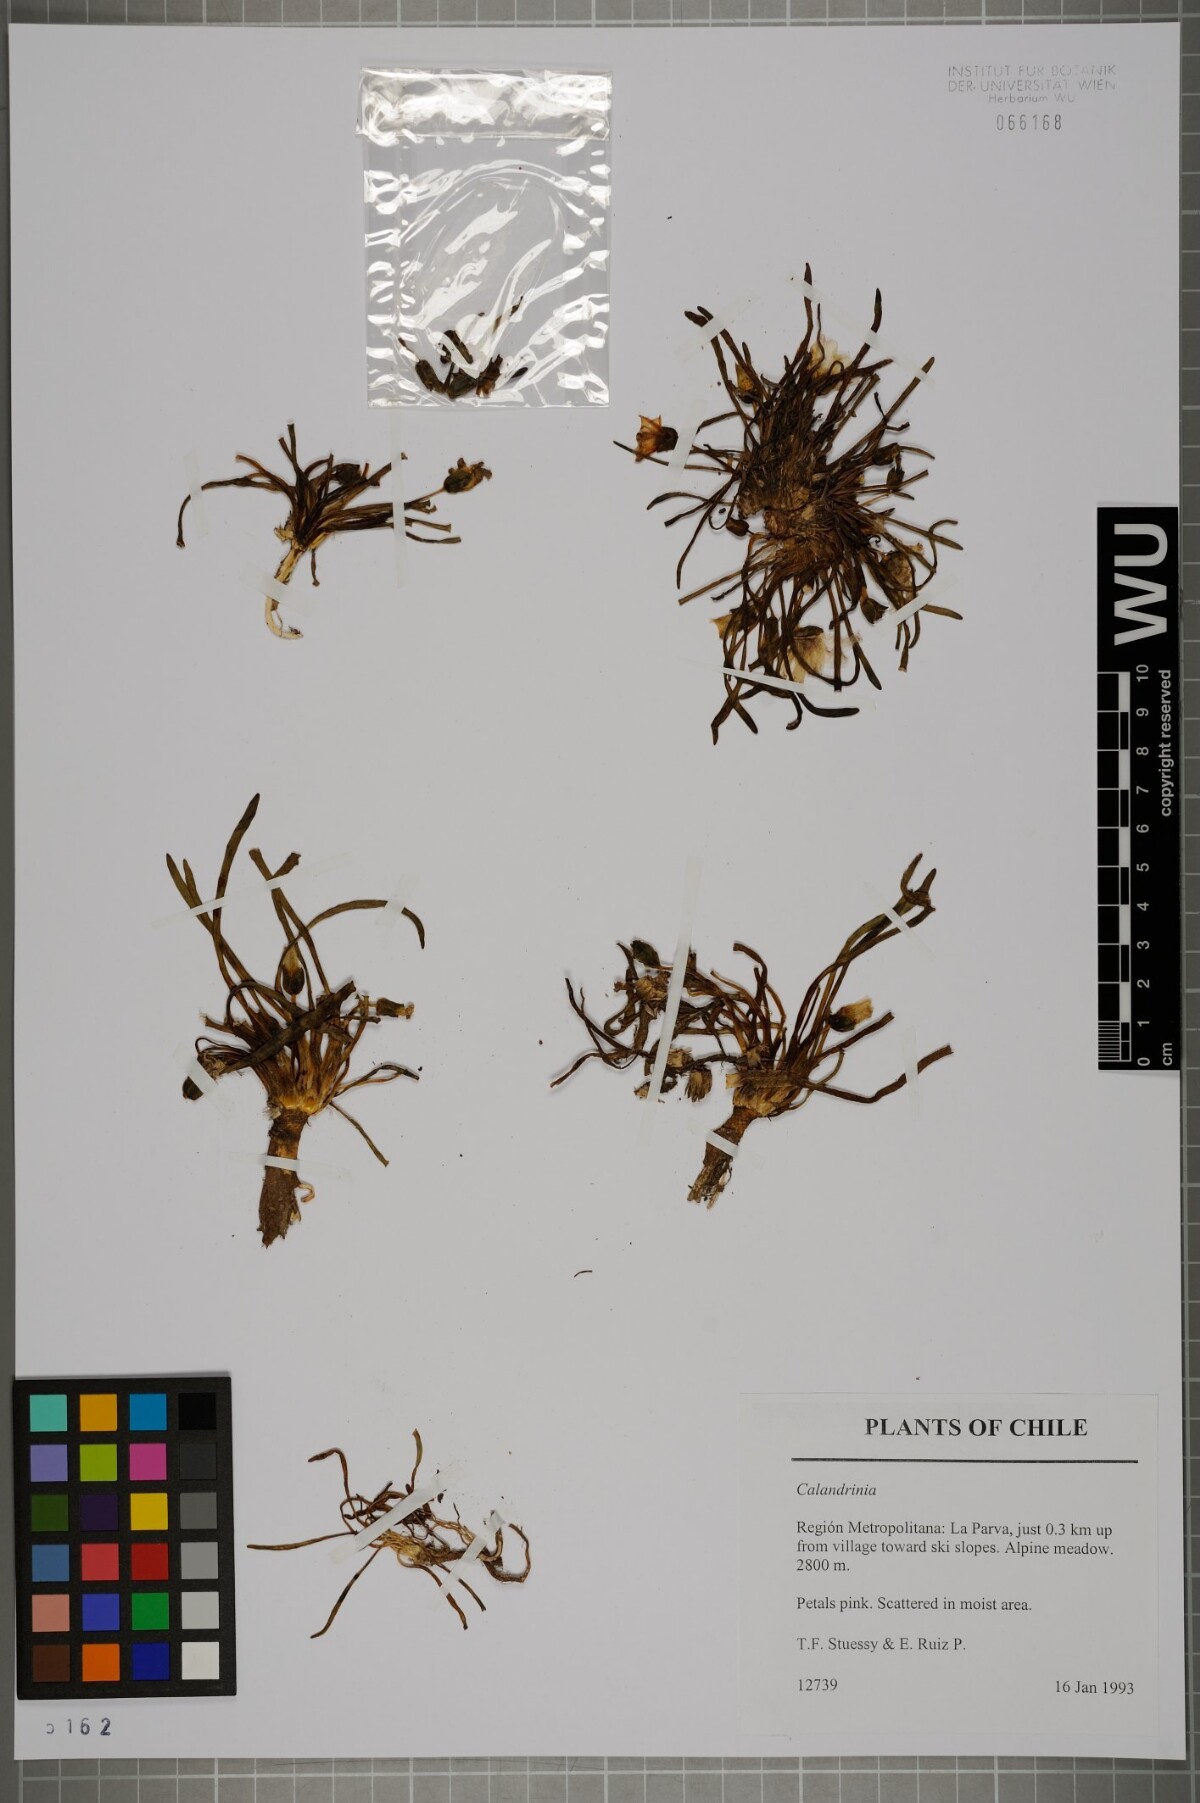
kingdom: Plantae
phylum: Tracheophyta
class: Magnoliopsida
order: Caryophyllales
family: Montiaceae
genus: Calandrinia
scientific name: Calandrinia
